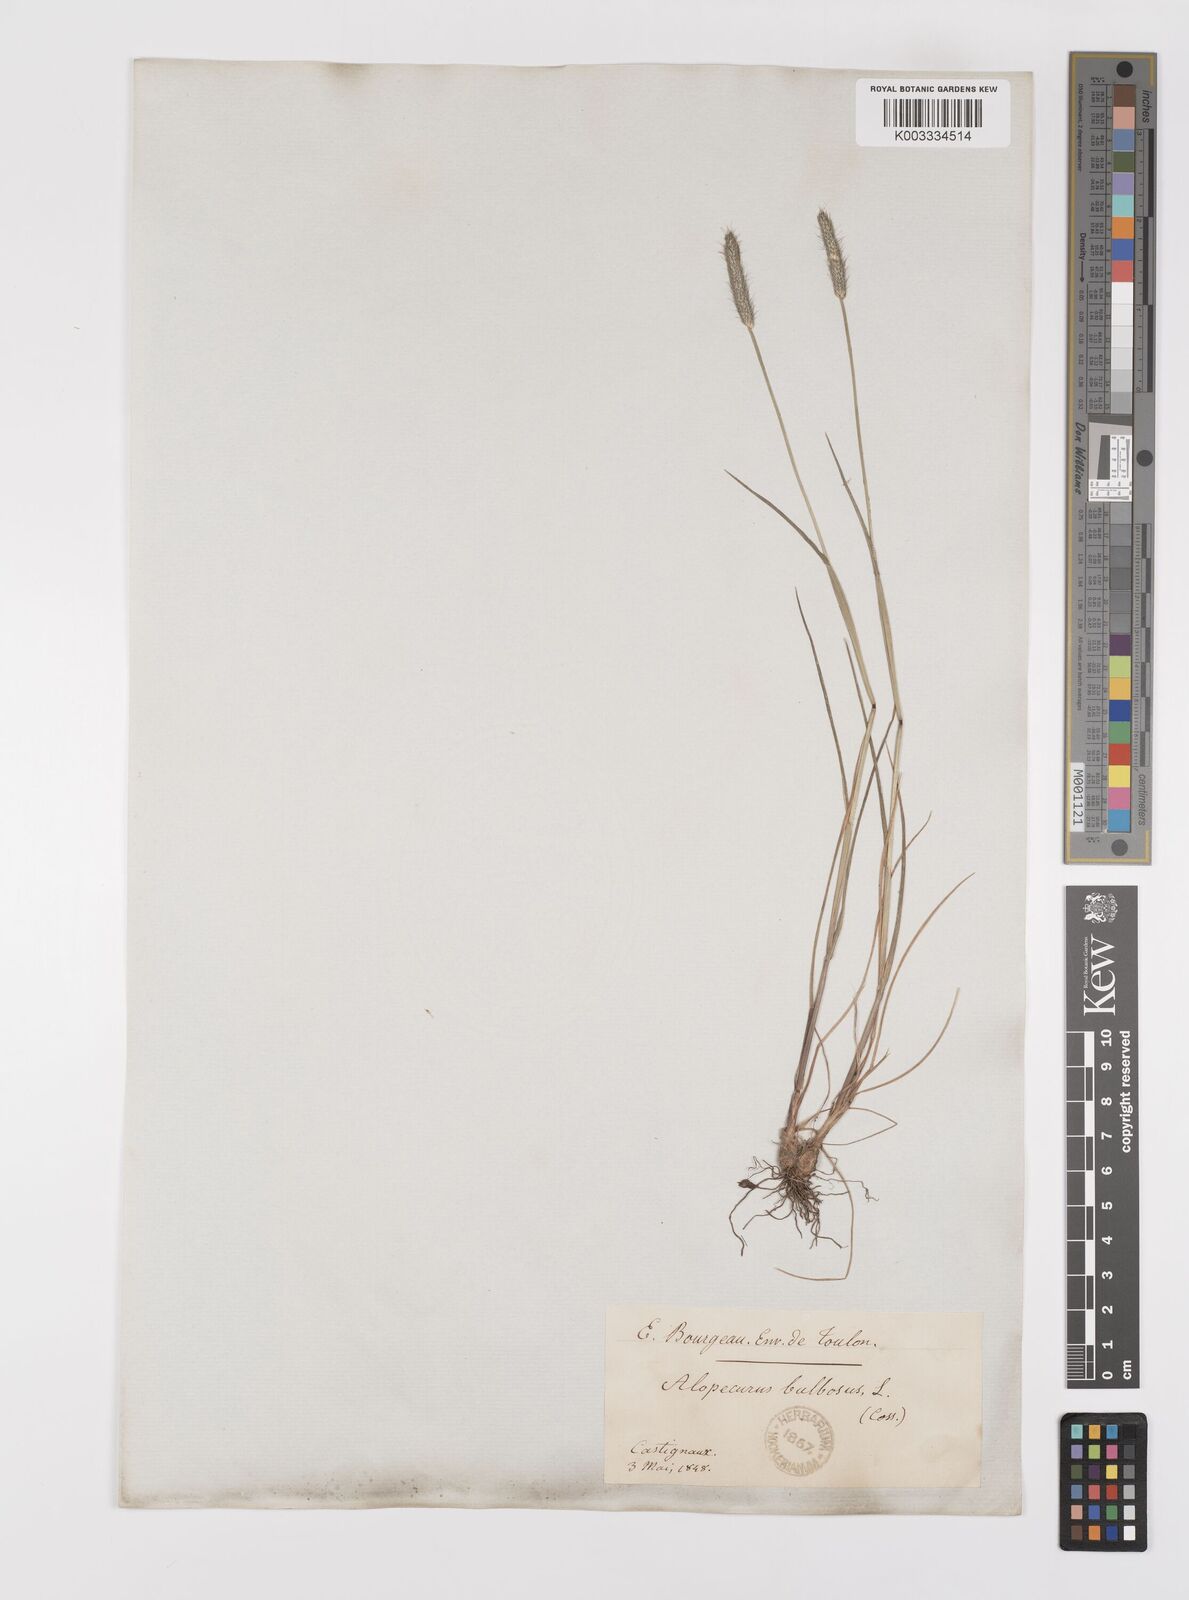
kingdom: Plantae
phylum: Tracheophyta
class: Liliopsida
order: Poales
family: Poaceae
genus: Alopecurus
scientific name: Alopecurus bulbosus
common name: Bulbous foxtail
